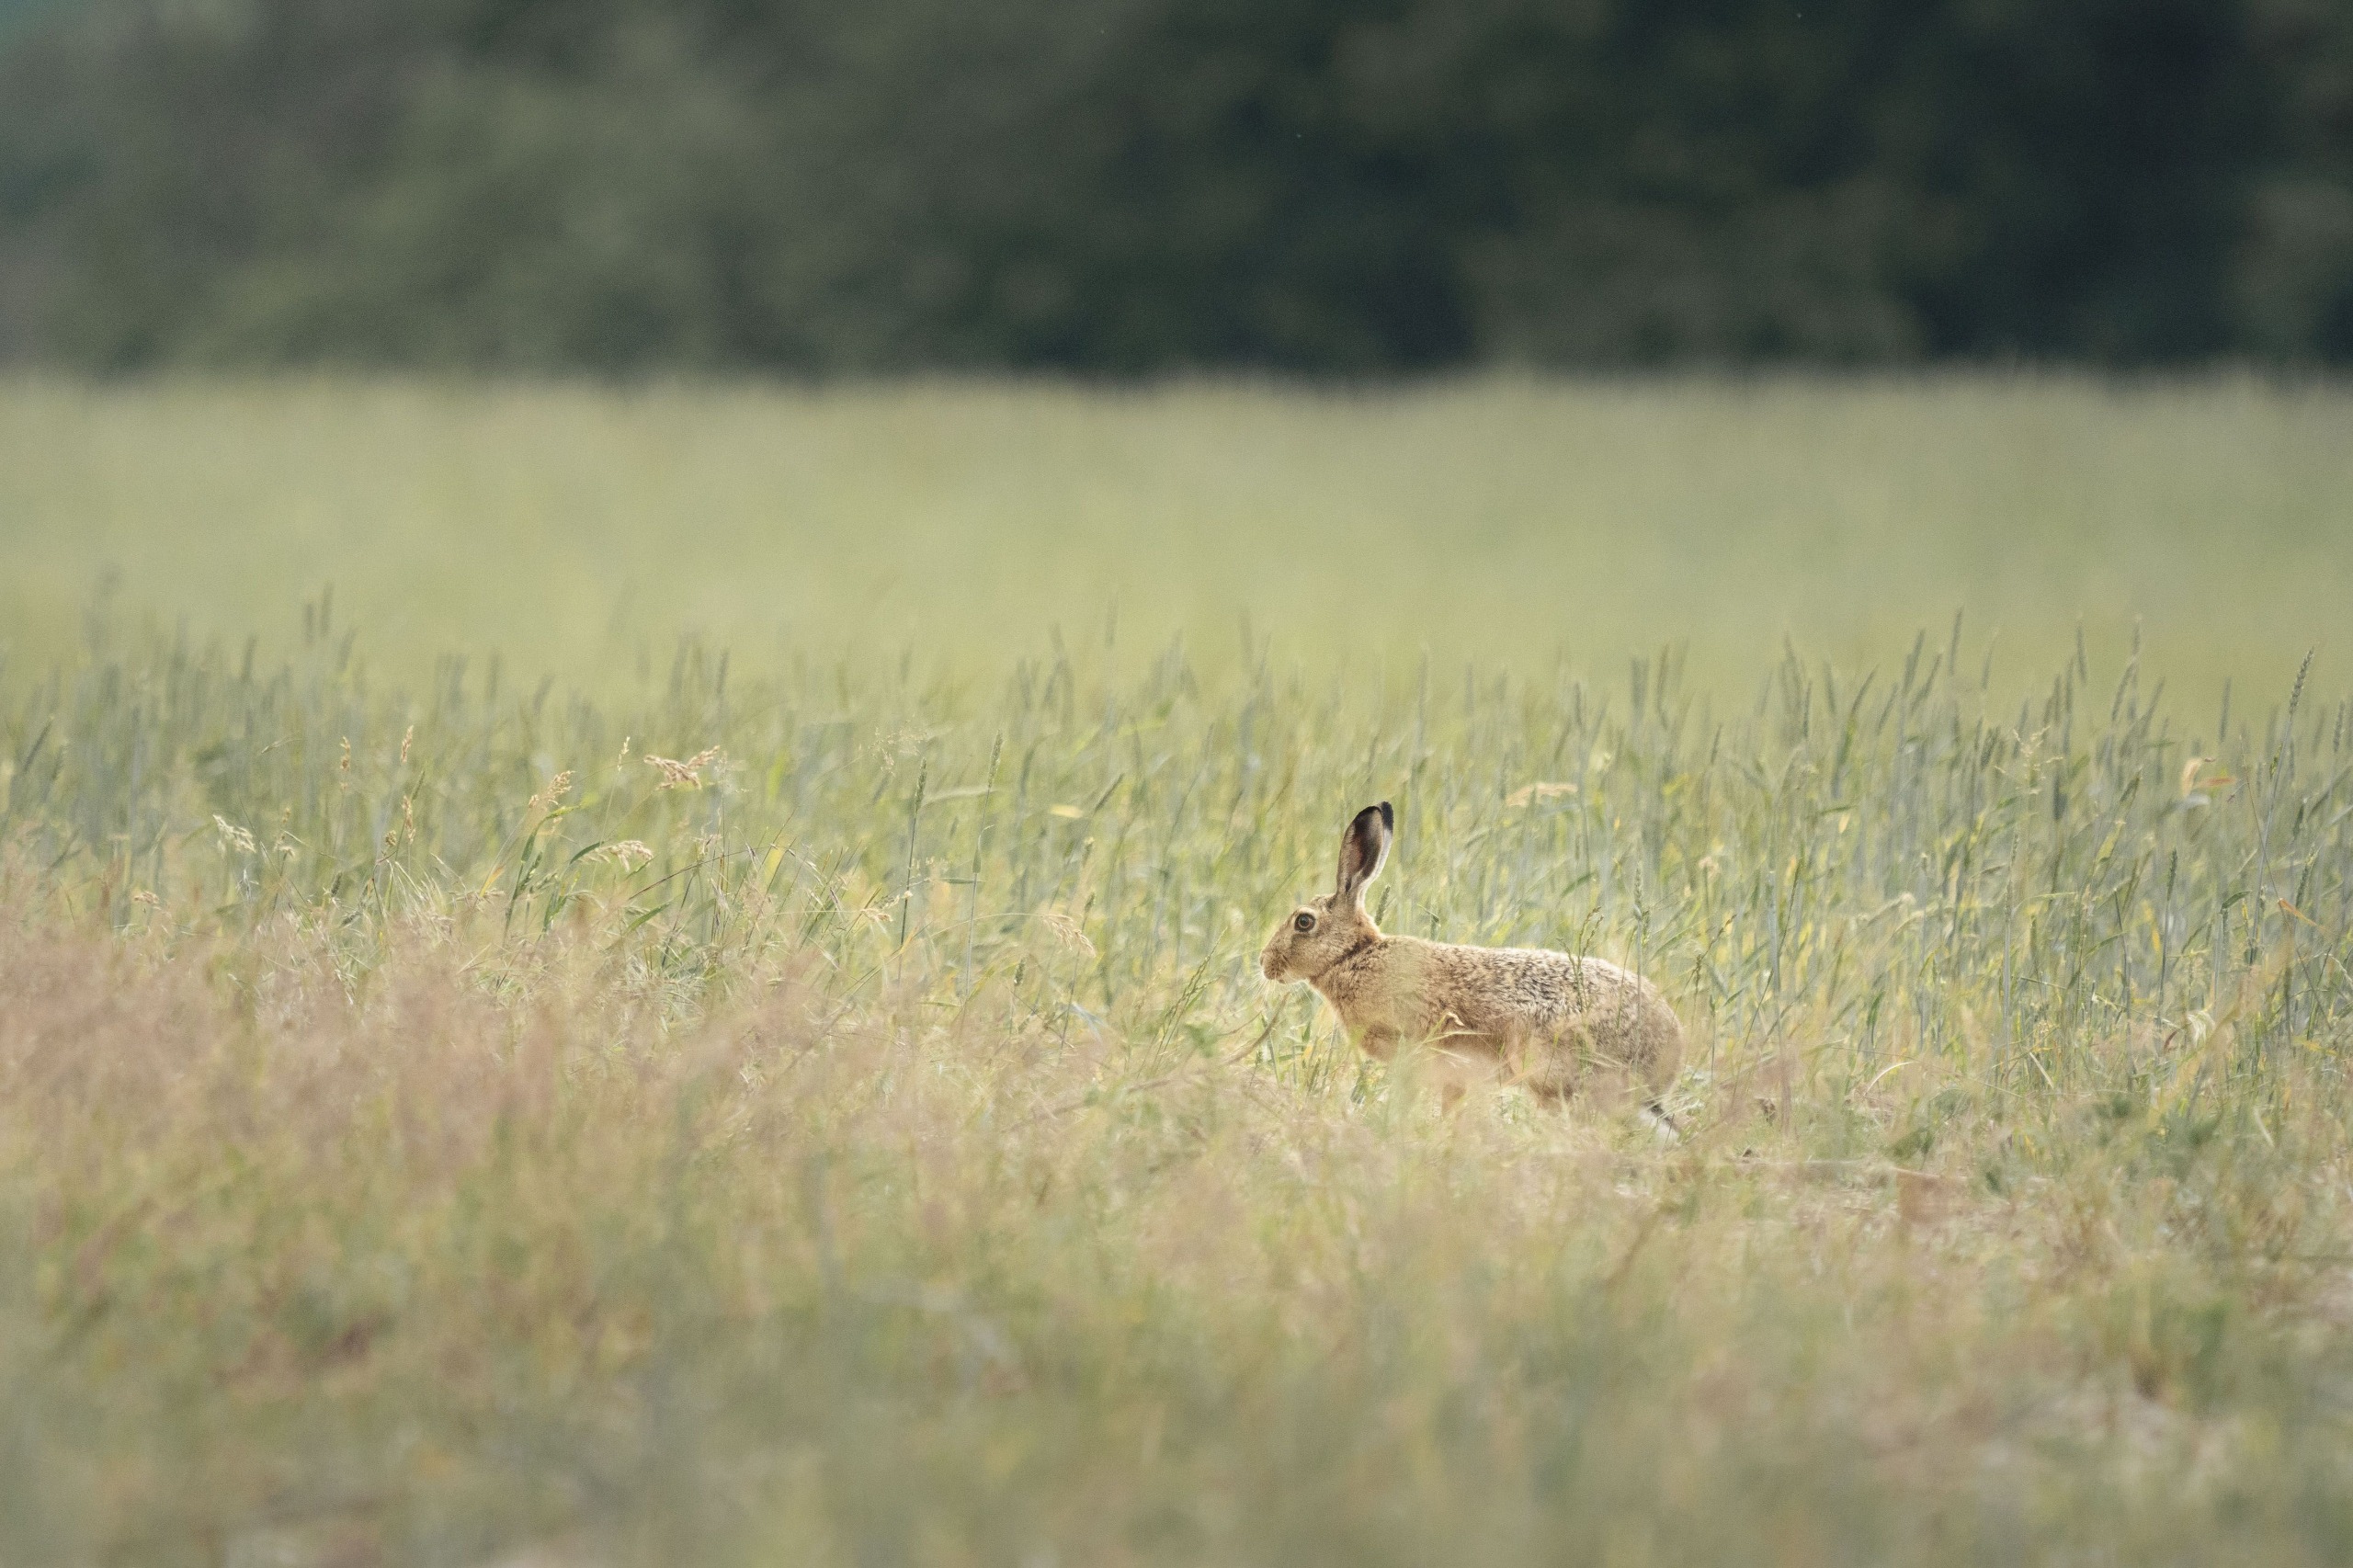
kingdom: Animalia
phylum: Chordata
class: Mammalia
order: Lagomorpha
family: Leporidae
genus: Lepus
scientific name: Lepus europaeus
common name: Hare
